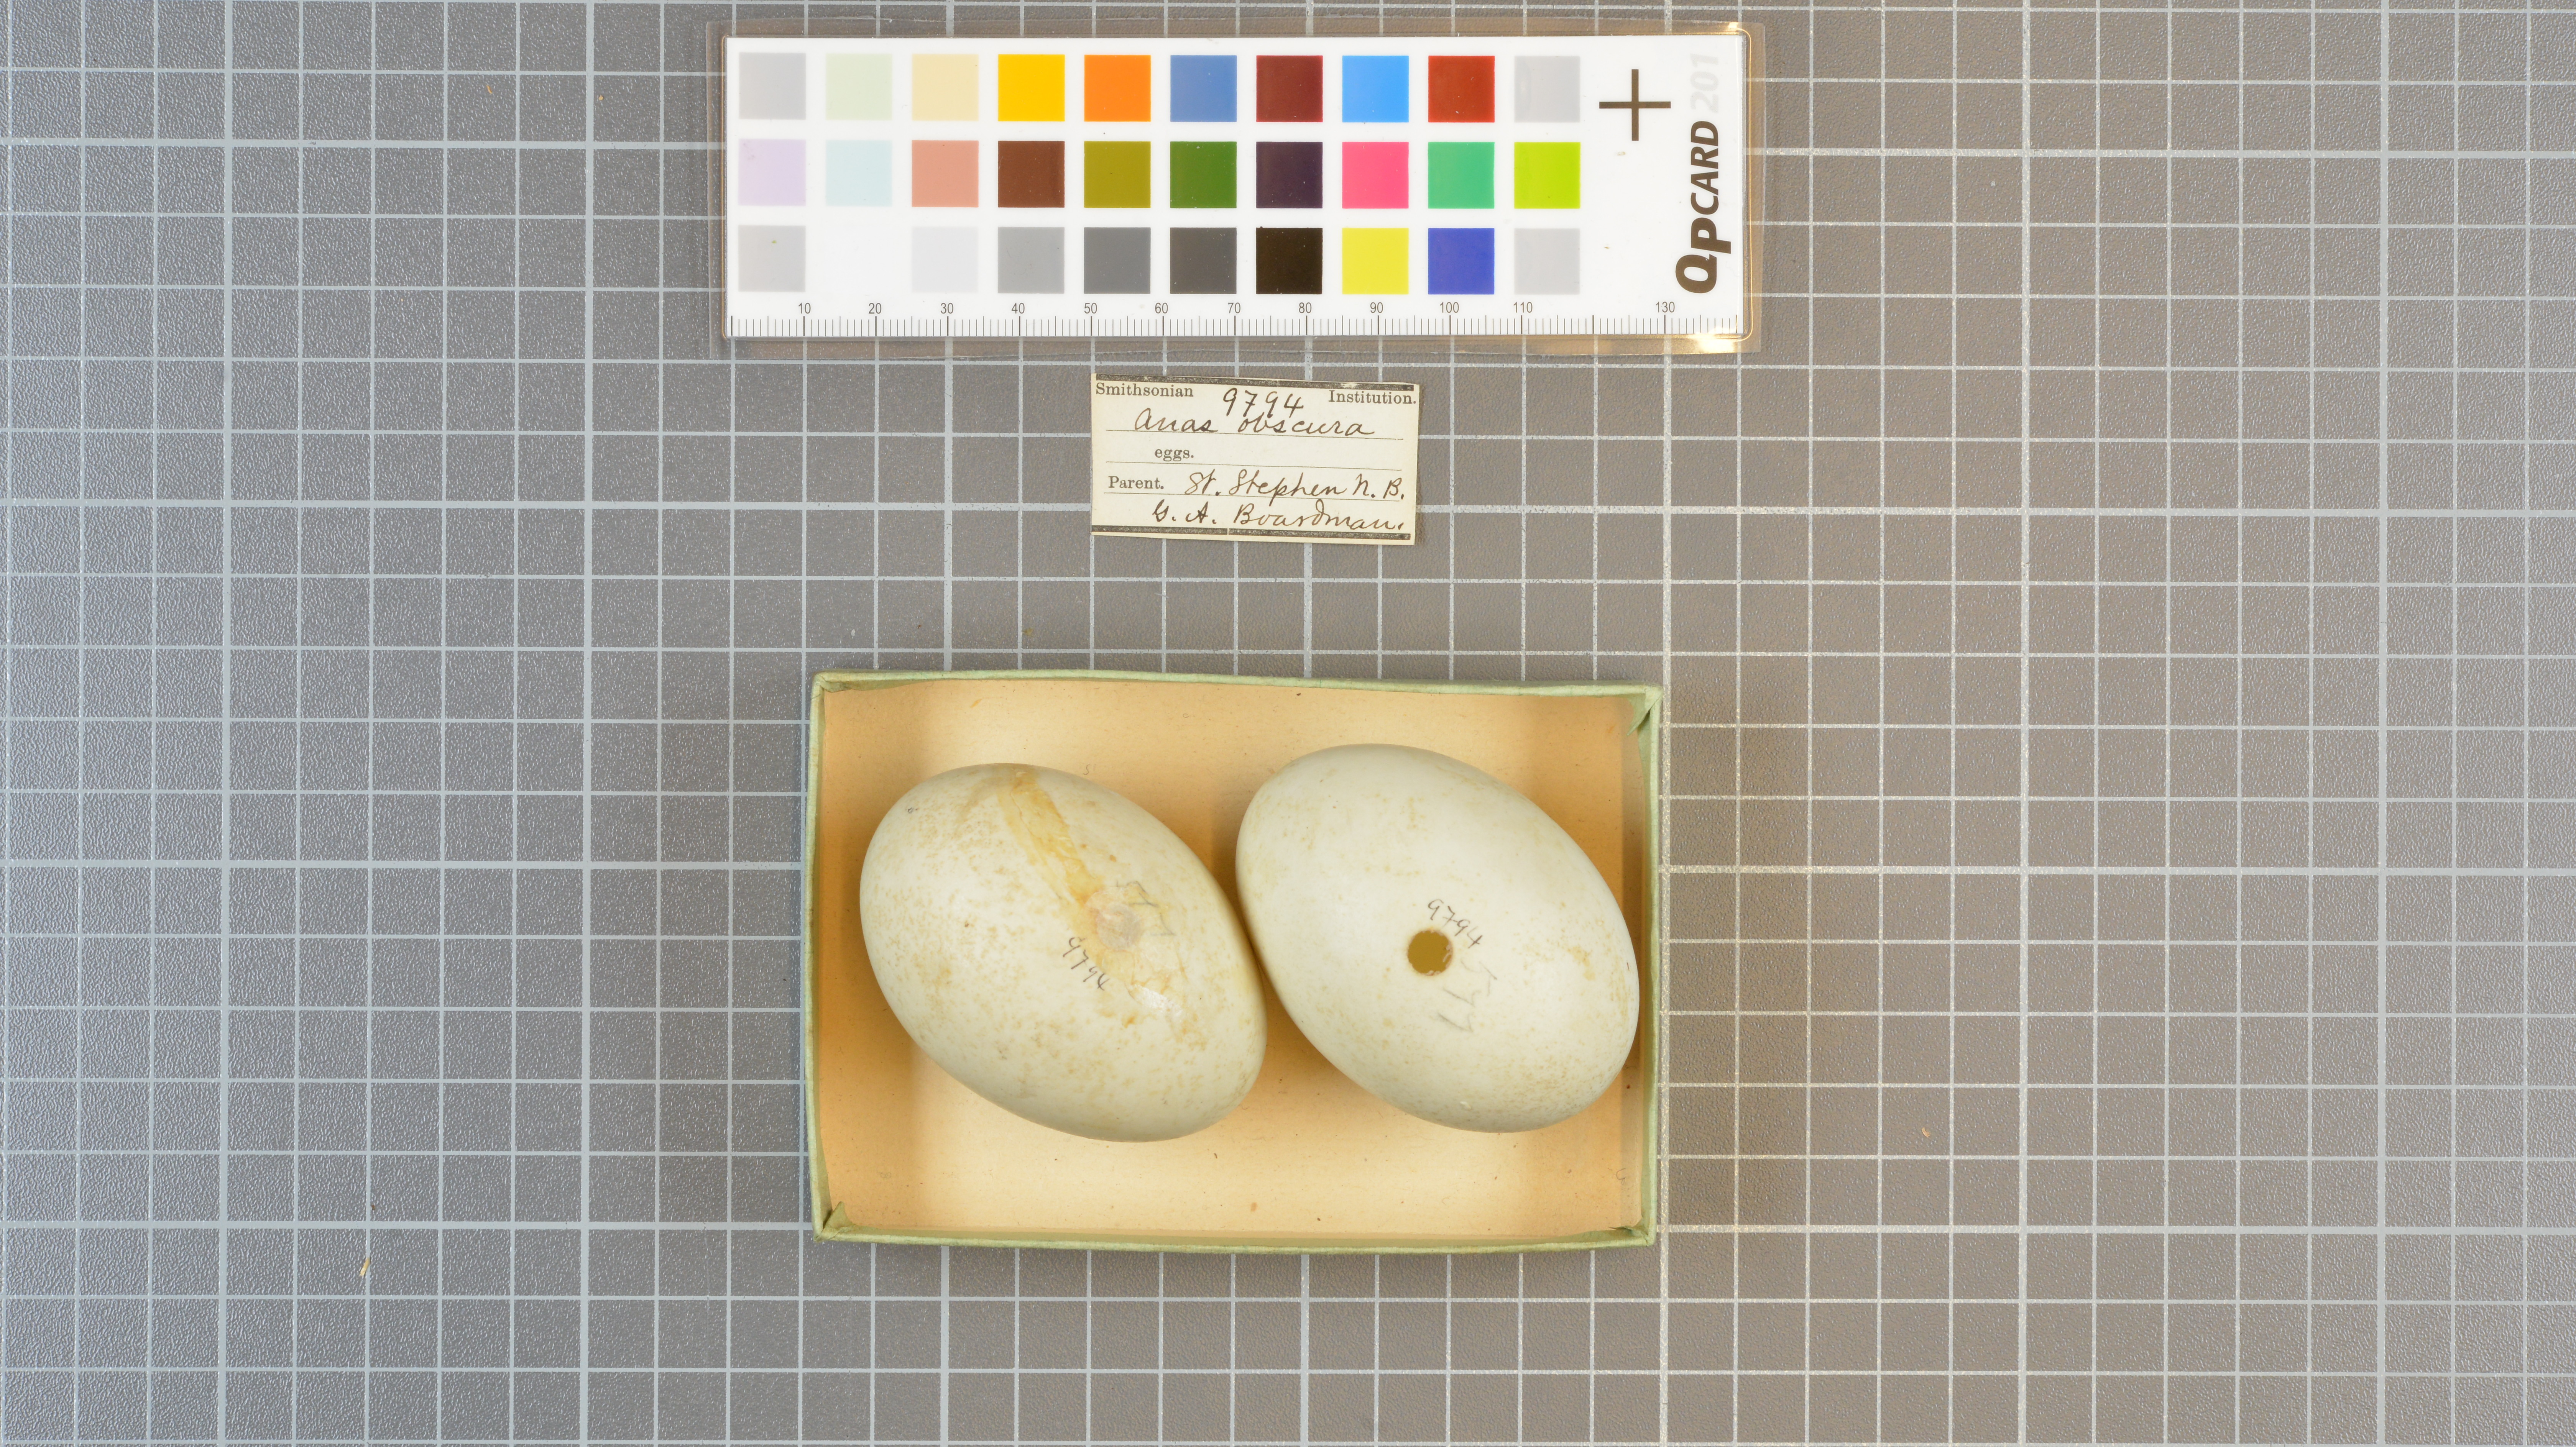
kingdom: Animalia
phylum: Chordata
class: Aves
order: Anseriformes
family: Anatidae
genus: Anas
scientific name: Anas rubripes
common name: American black duck
